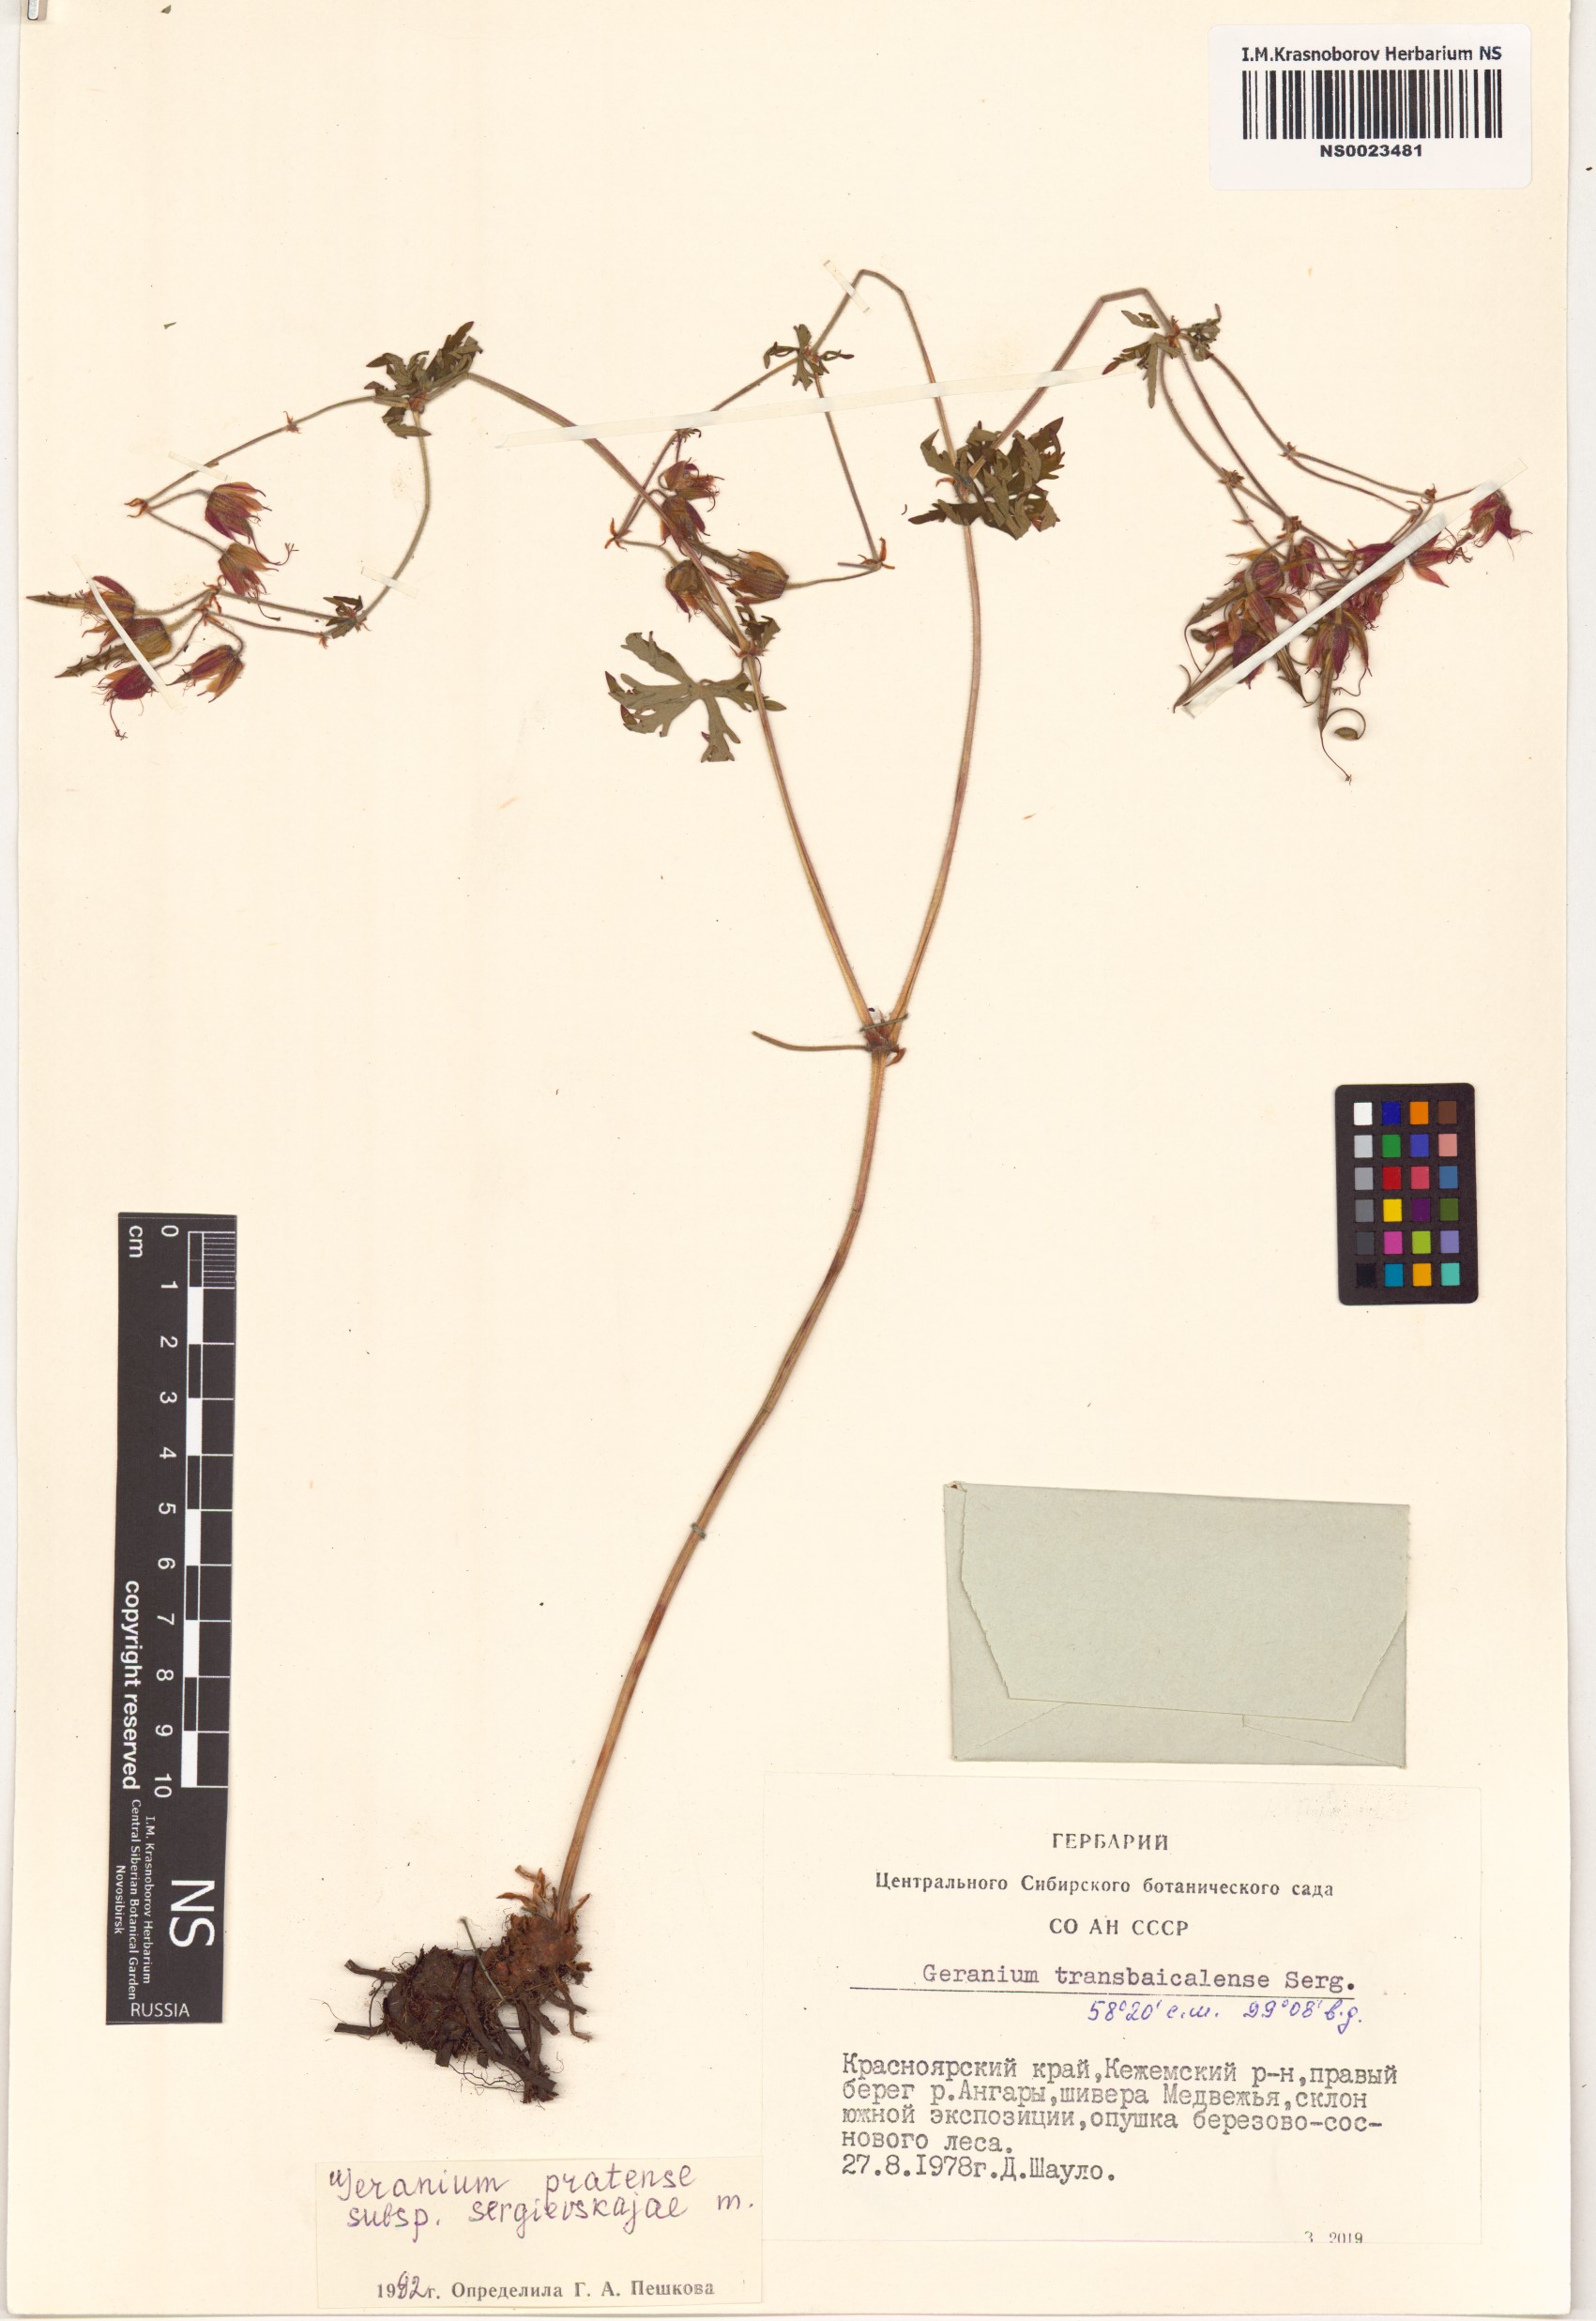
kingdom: Plantae
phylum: Tracheophyta
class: Magnoliopsida
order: Geraniales
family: Geraniaceae
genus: Geranium
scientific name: Geranium pratense
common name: Meadow crane's-bill
